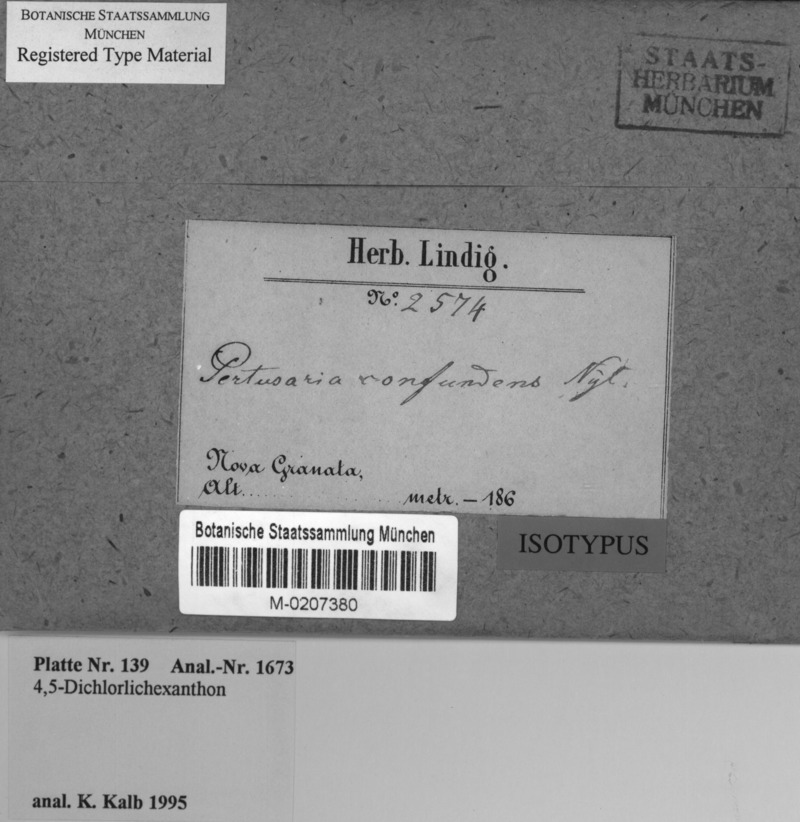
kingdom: Fungi
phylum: Ascomycota
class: Lecanoromycetes
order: Pertusariales
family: Pertusariaceae
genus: Pertusaria
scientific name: Pertusaria confundens
